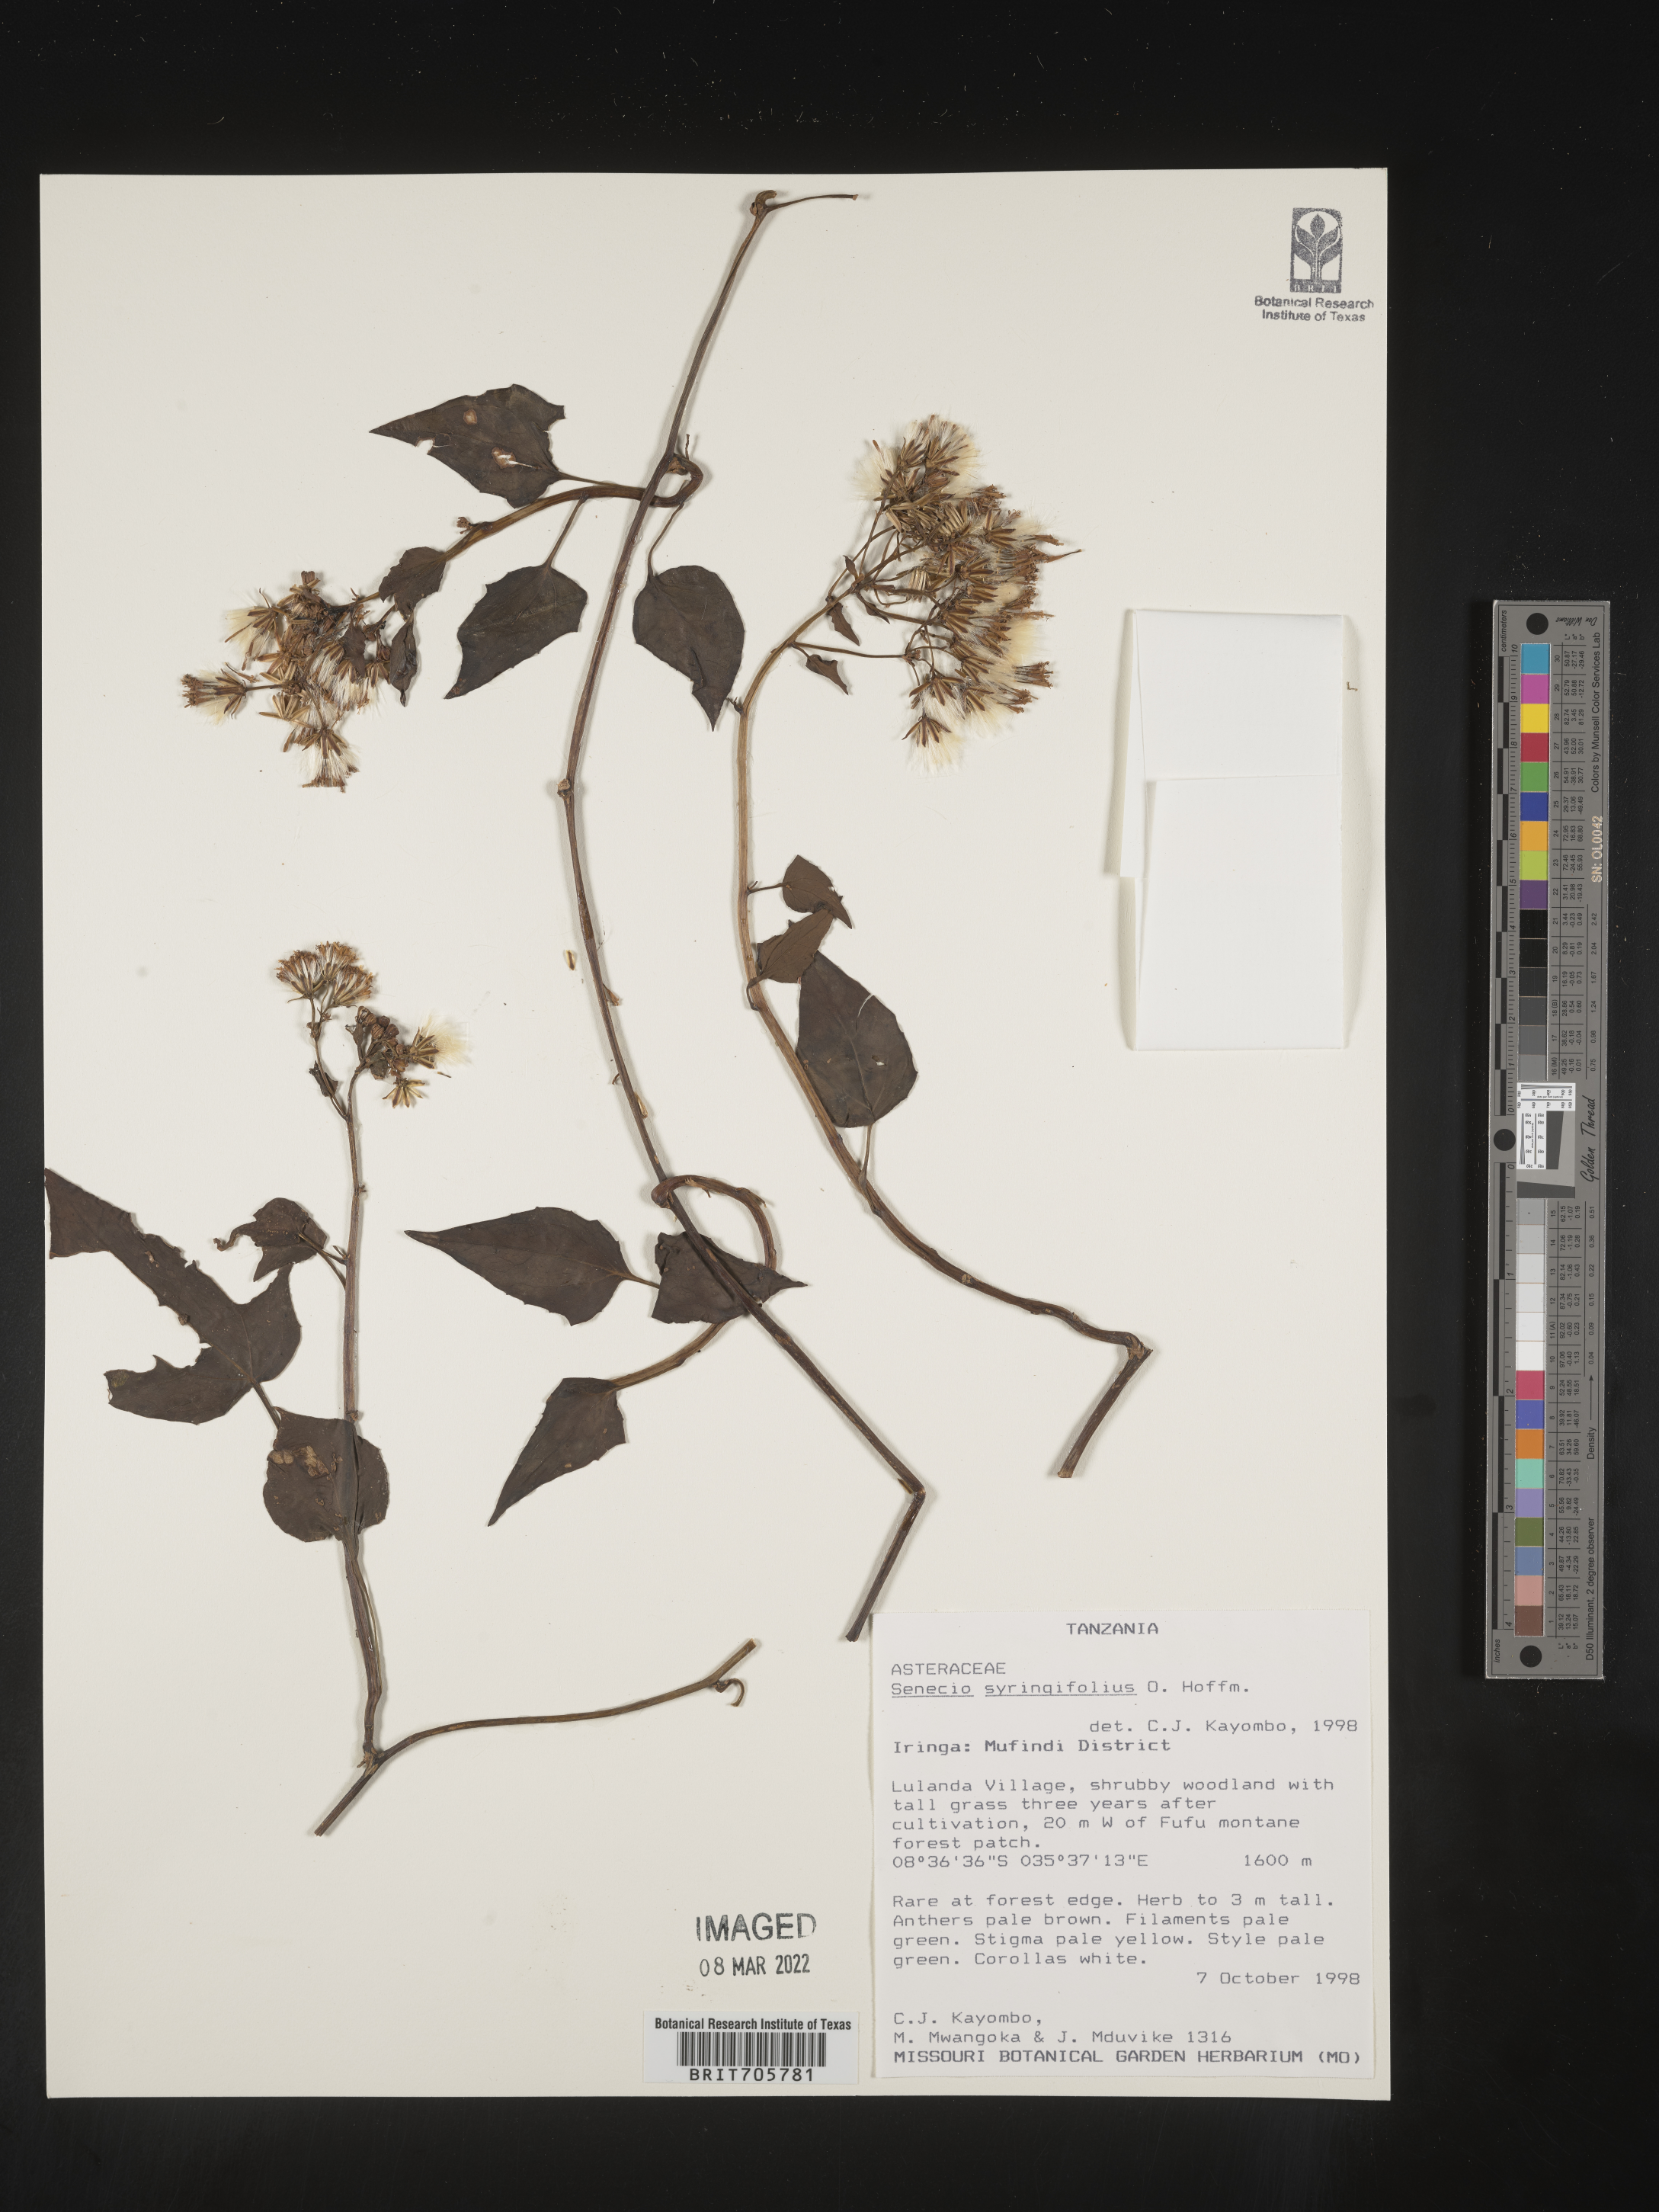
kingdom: Plantae
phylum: Tracheophyta
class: Magnoliopsida
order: Asterales
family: Asteraceae
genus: Senecio
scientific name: Senecio
